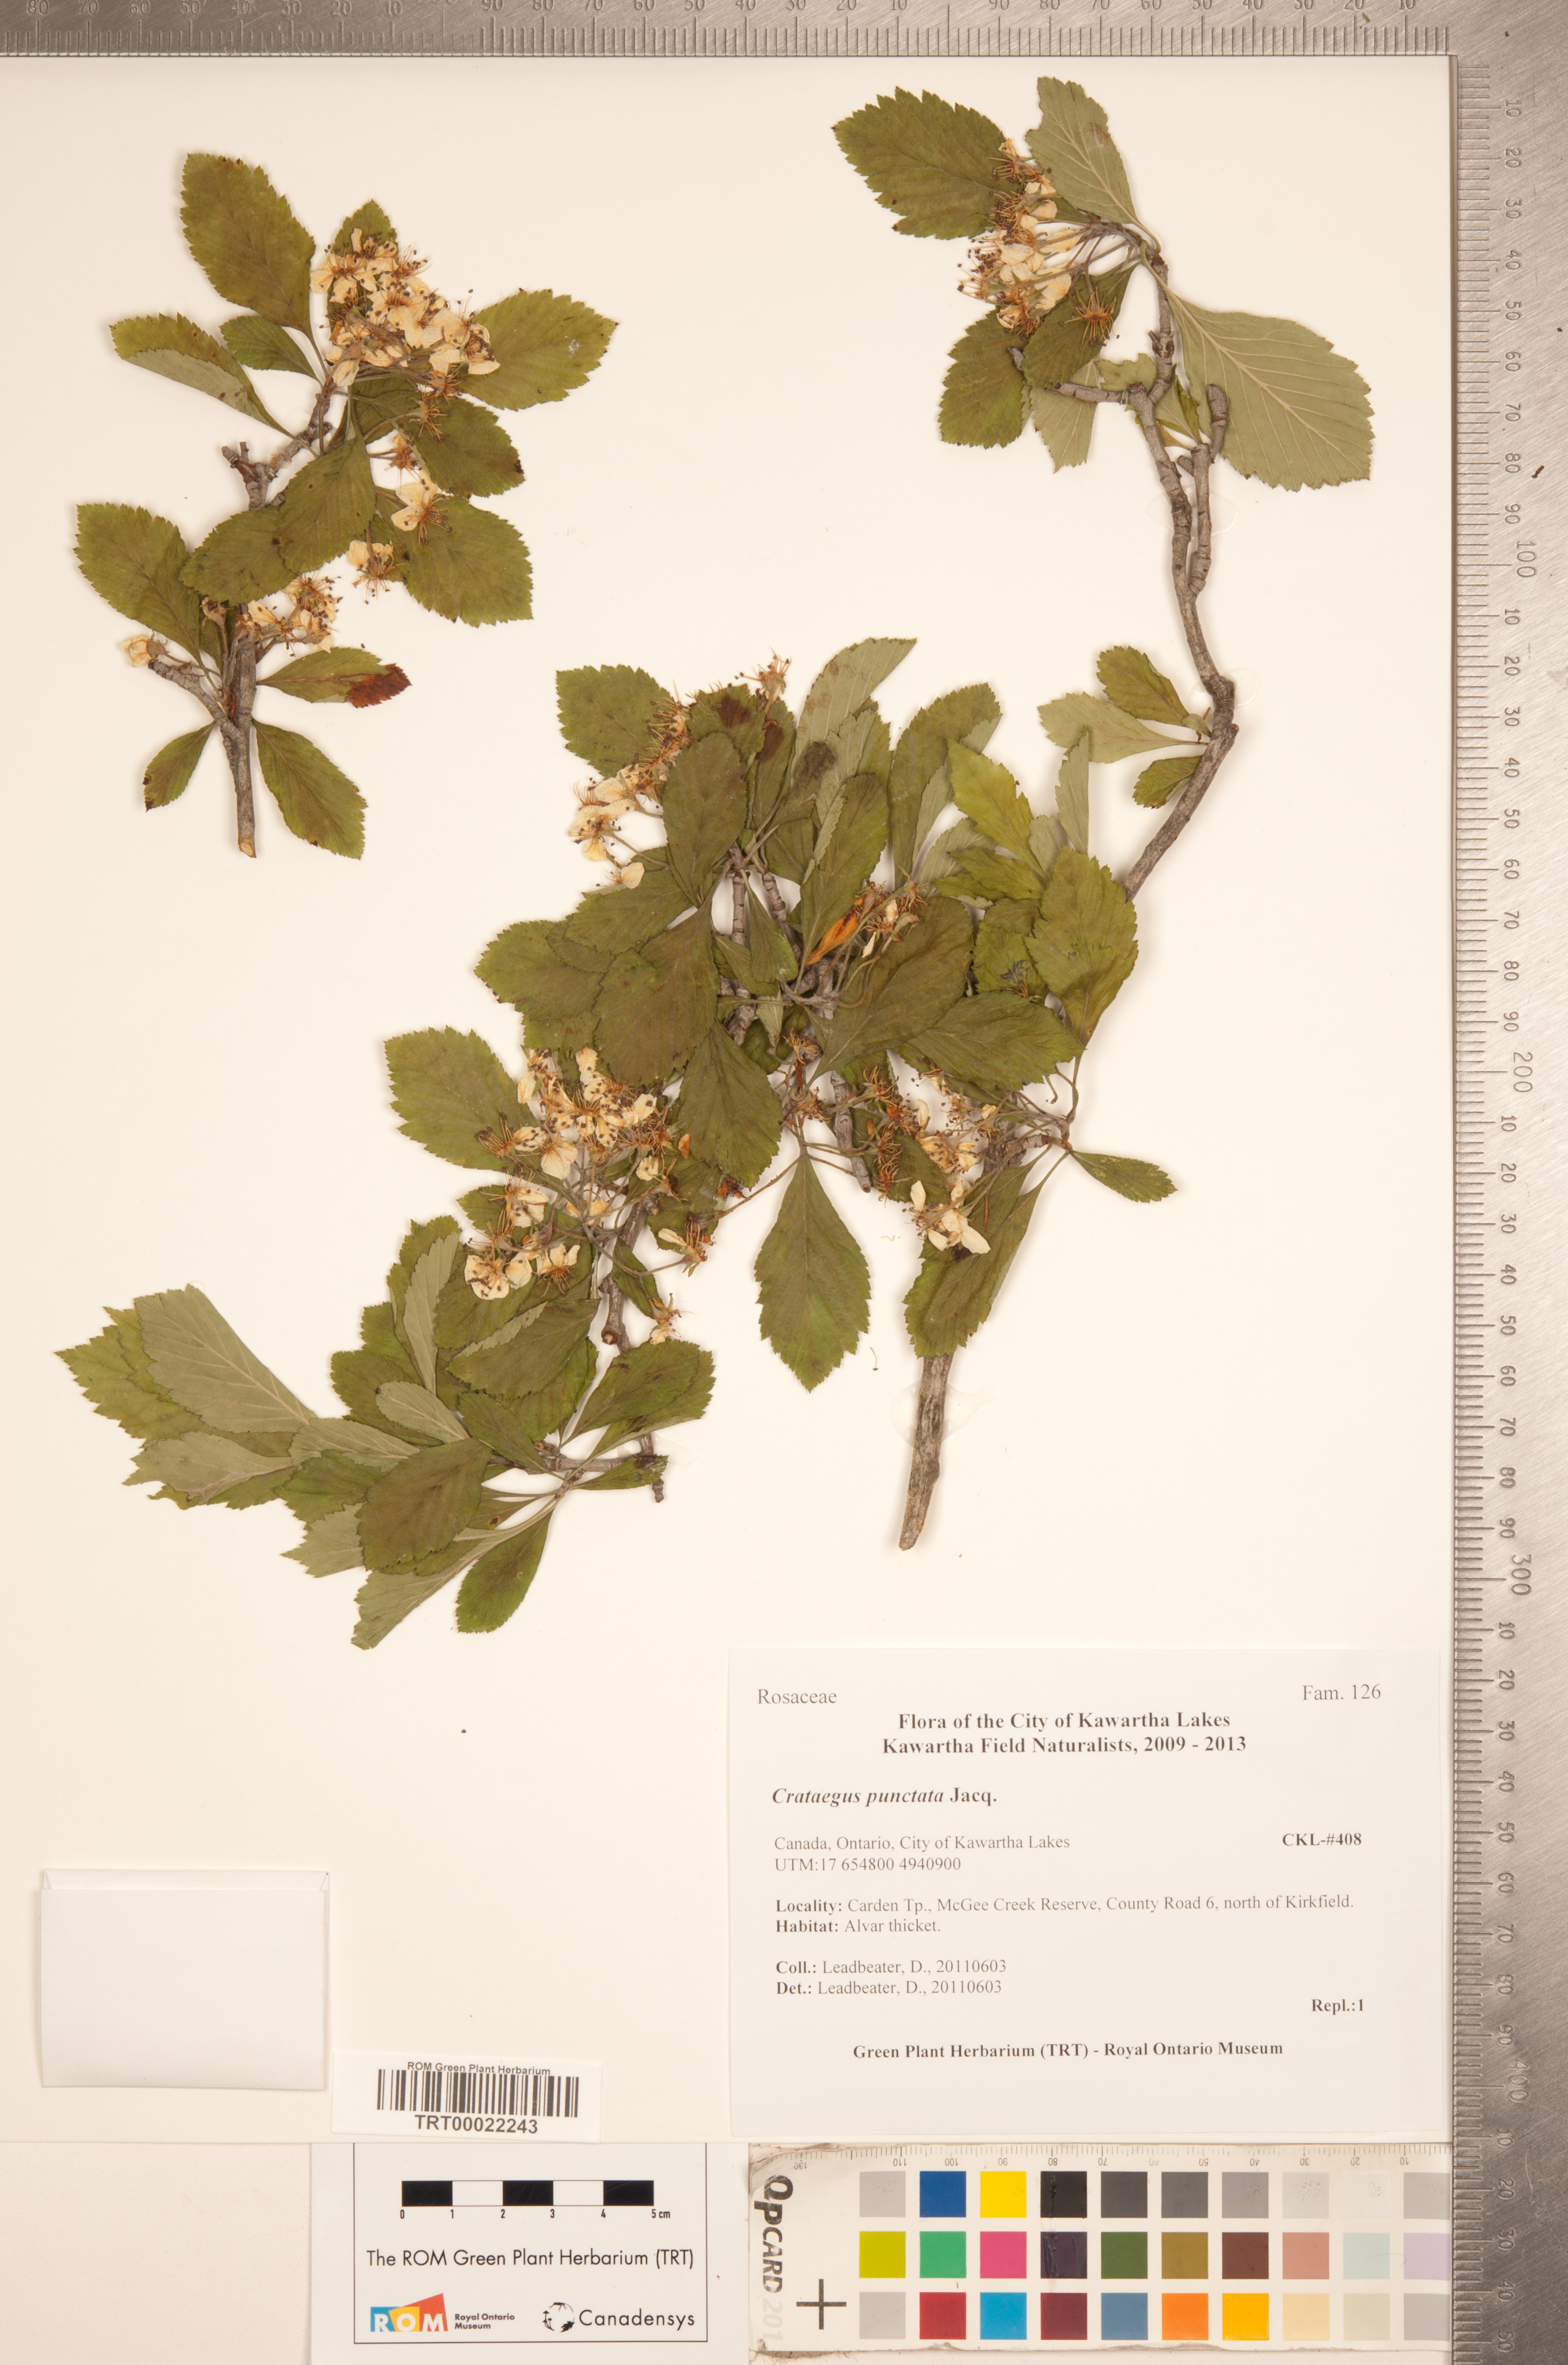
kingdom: Plantae
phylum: Tracheophyta
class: Magnoliopsida
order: Rosales
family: Rosaceae
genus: Crataegus
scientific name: Crataegus punctata
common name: Dotted hawthorn
